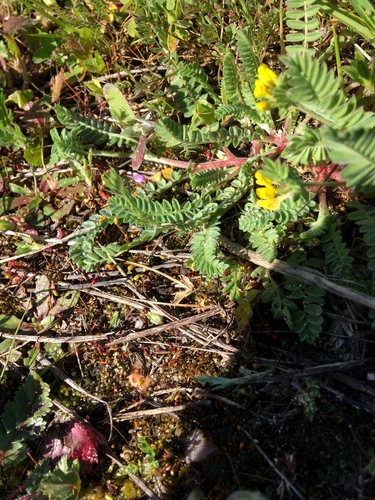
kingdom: Plantae
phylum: Tracheophyta
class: Magnoliopsida
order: Fabales
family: Fabaceae
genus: Ornithopus
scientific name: Ornithopus compressus
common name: Yellow serradella
